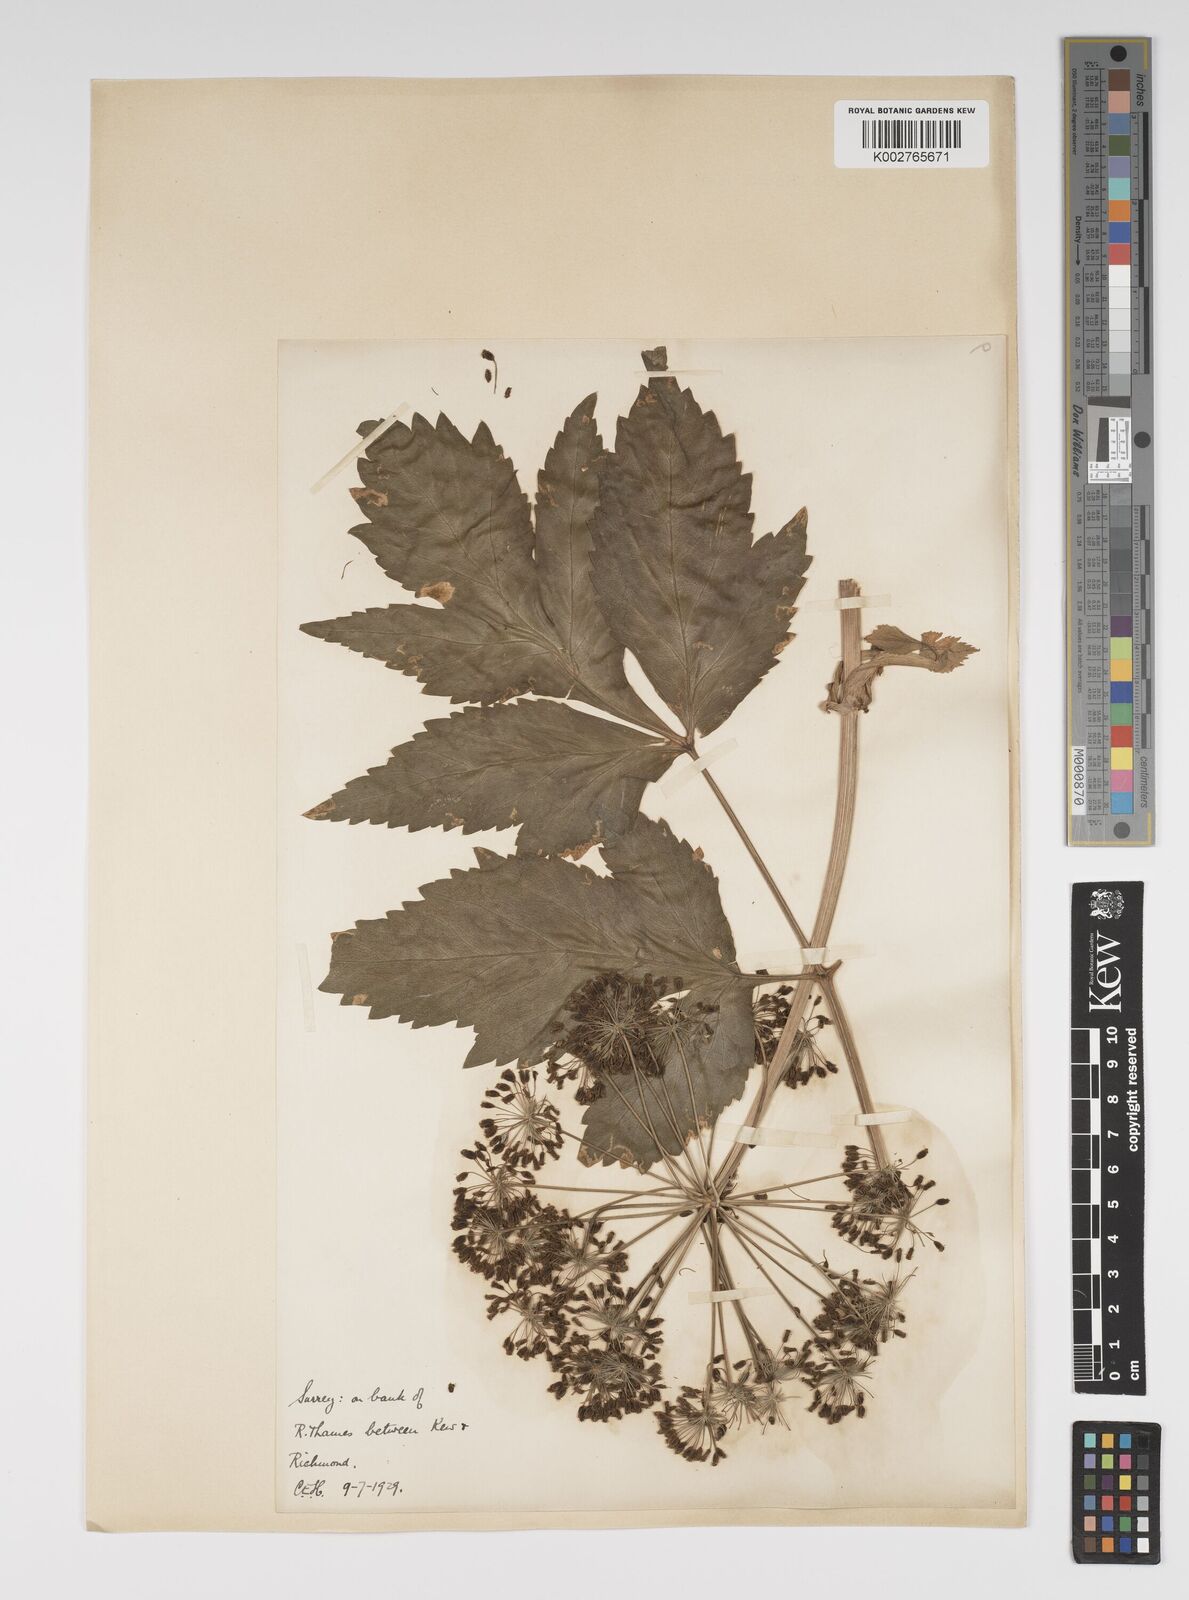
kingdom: Plantae
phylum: Tracheophyta
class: Magnoliopsida
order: Apiales
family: Apiaceae
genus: Angelica
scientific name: Angelica archangelica
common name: Garden angelica
